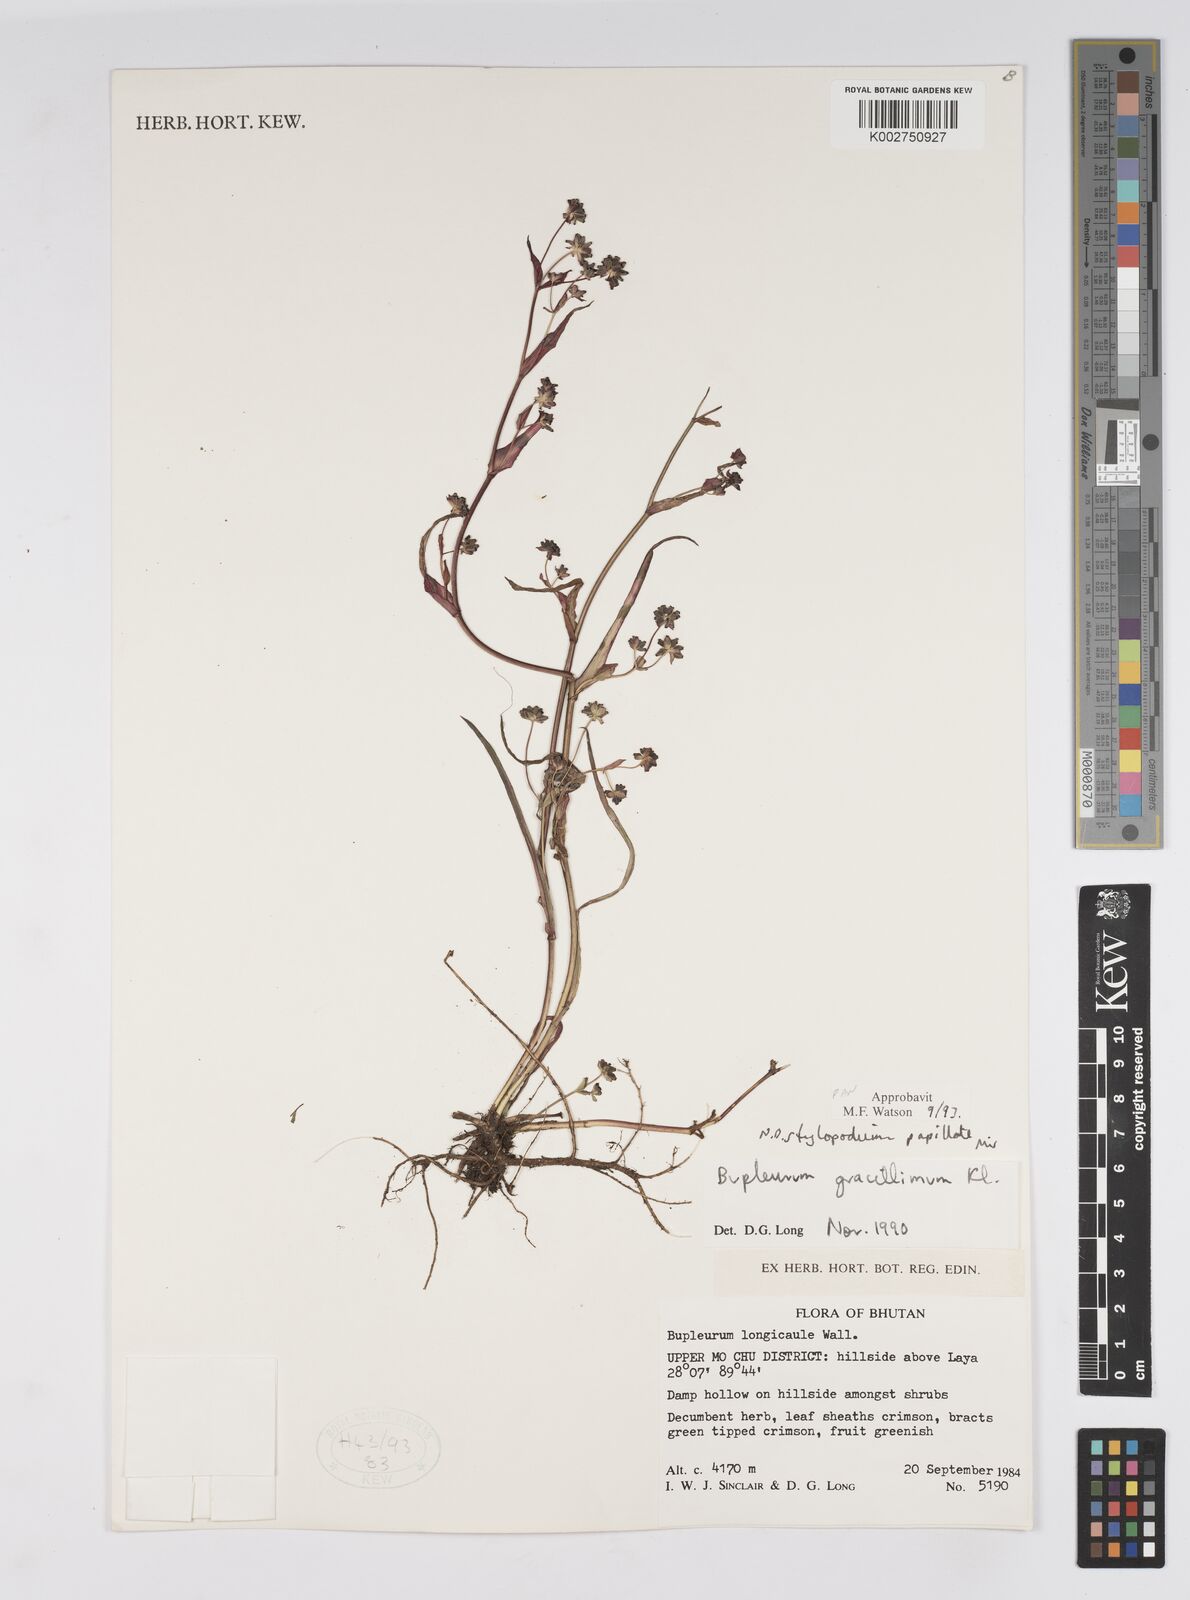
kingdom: Plantae
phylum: Tracheophyta
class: Magnoliopsida
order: Apiales
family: Apiaceae
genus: Bupleurum
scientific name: Bupleurum gracillimum
